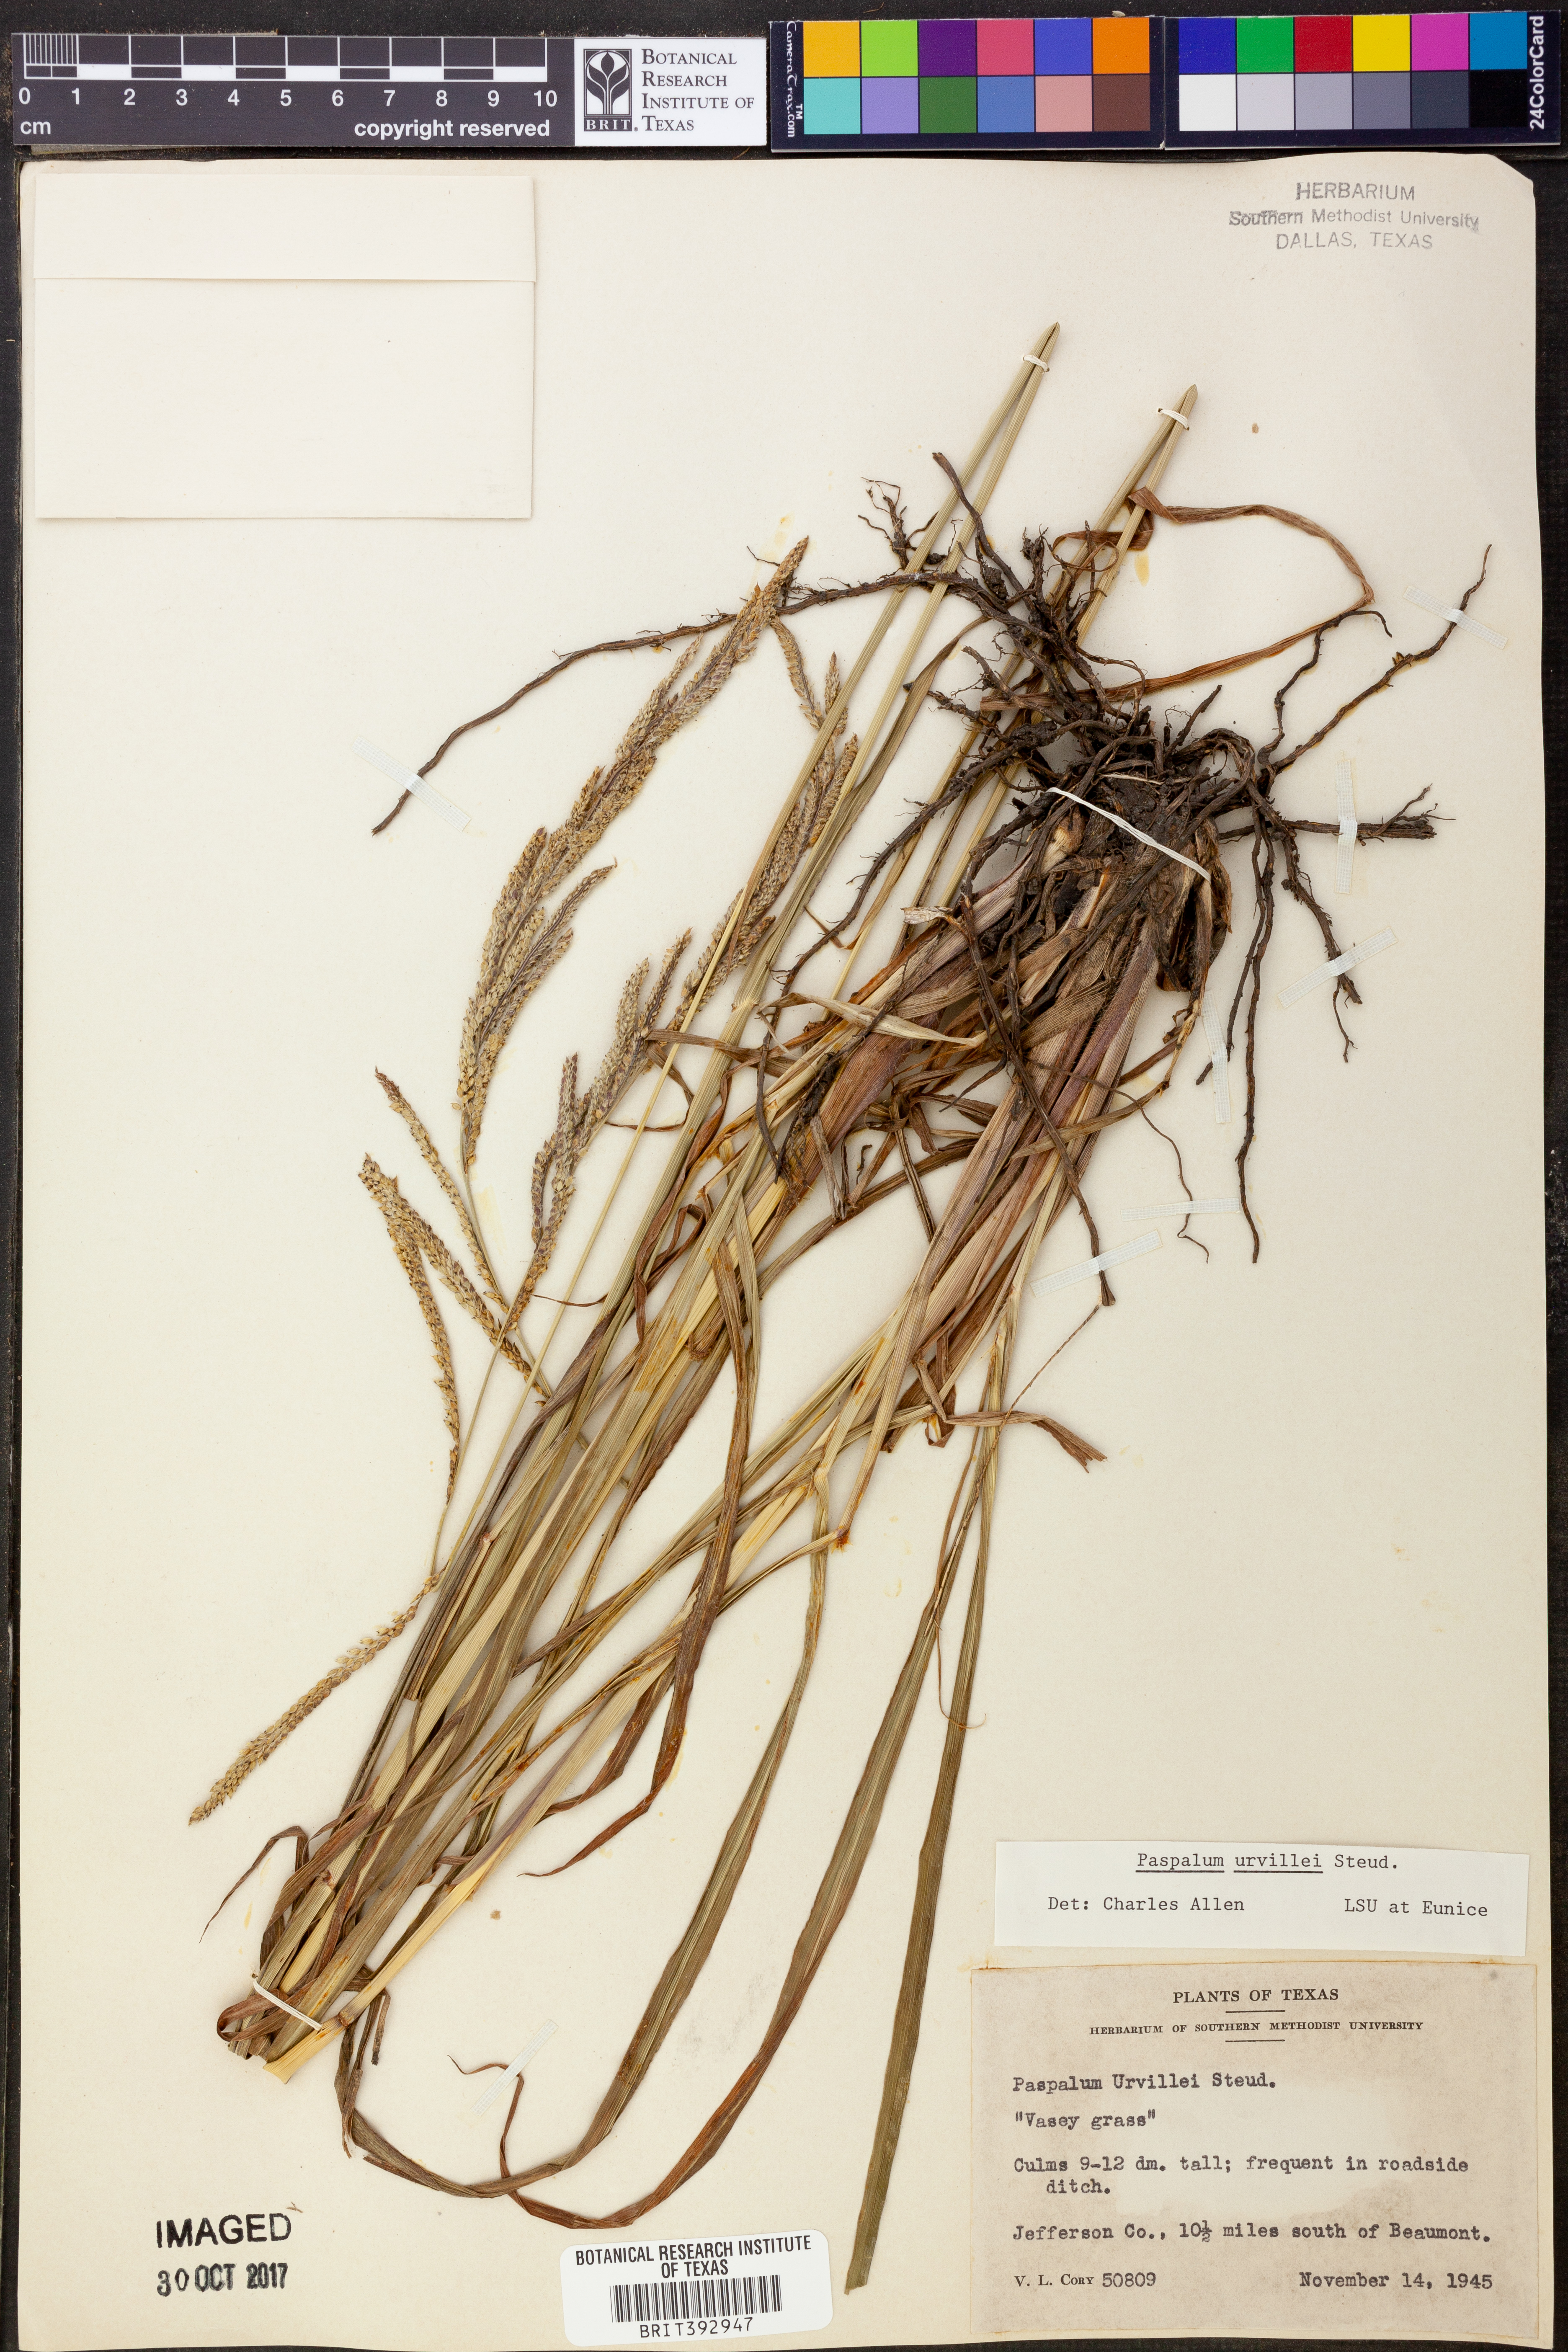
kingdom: Plantae
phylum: Tracheophyta
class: Liliopsida
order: Poales
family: Poaceae
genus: Paspalum
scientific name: Paspalum urvillei
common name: Vasey's grass
